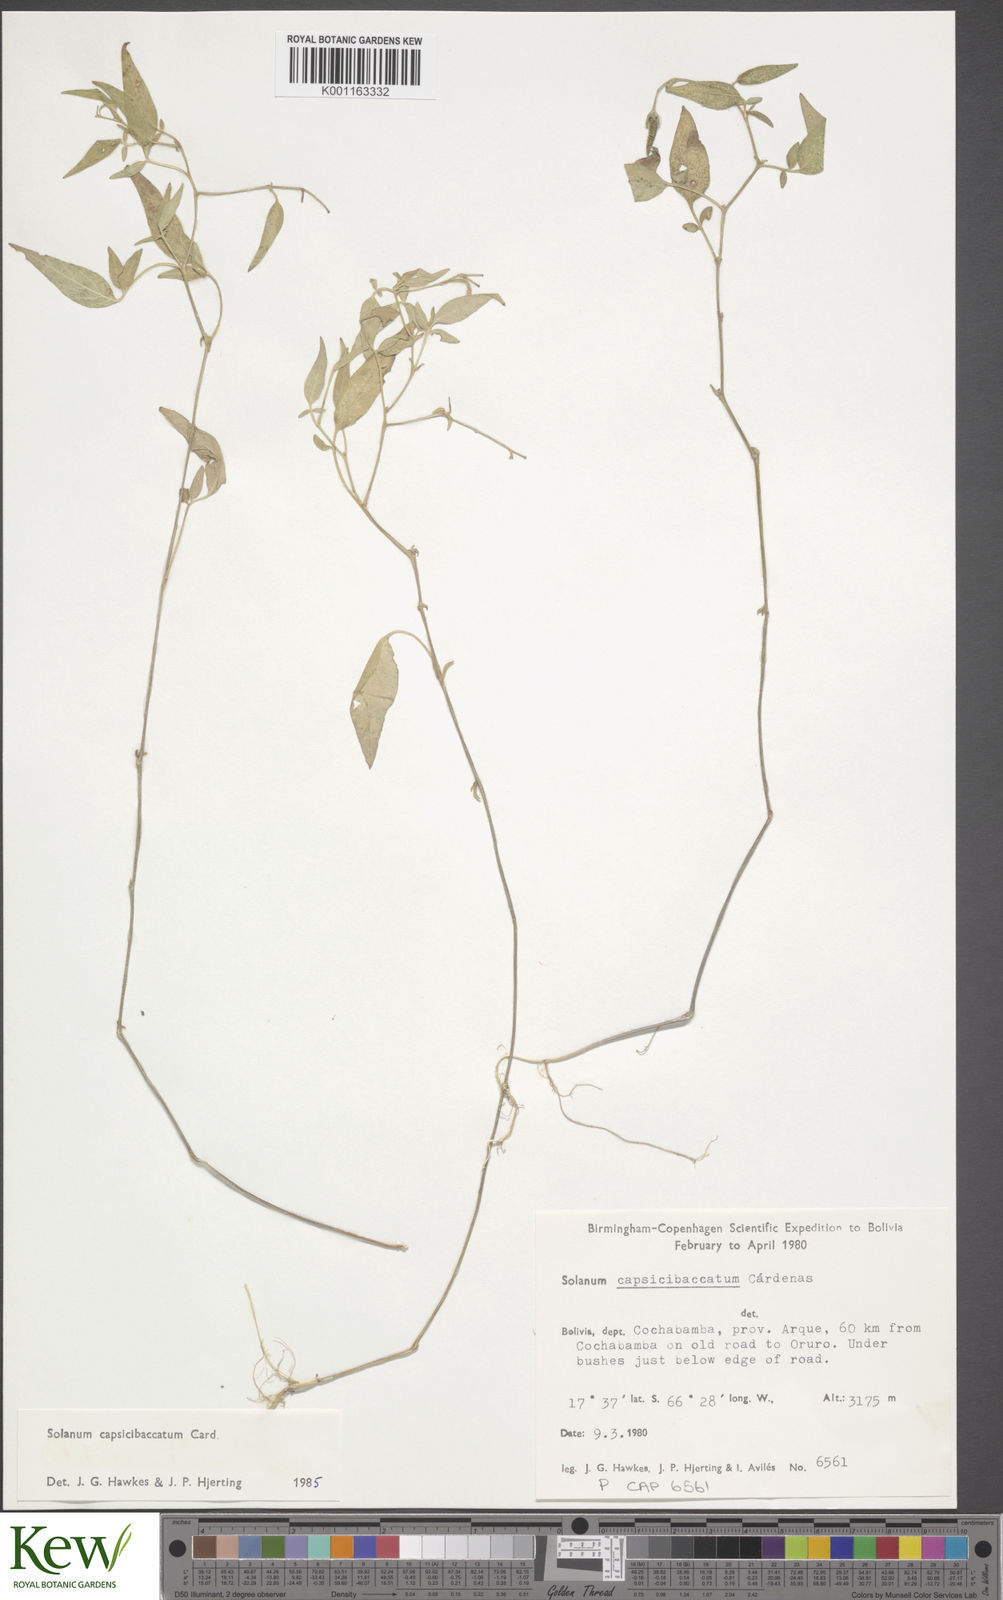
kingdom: Plantae
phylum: Tracheophyta
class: Magnoliopsida
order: Solanales
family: Solanaceae
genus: Solanum
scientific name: Solanum stipuloideum
